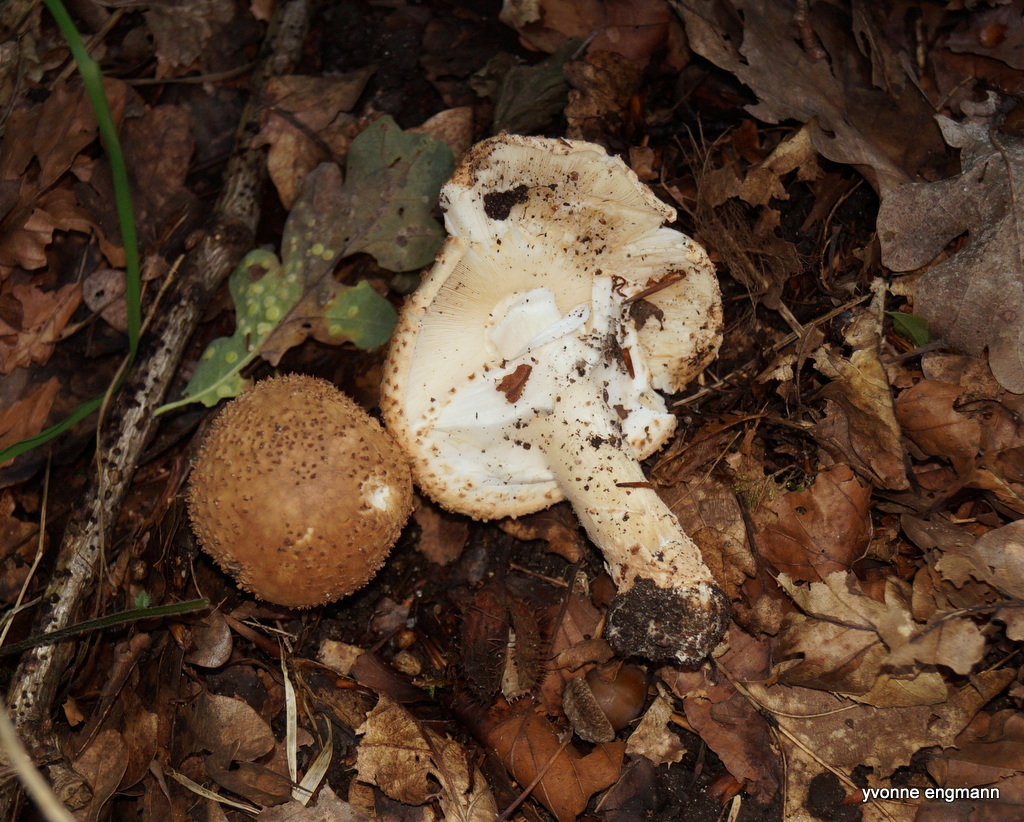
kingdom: Fungi
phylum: Basidiomycota
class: Agaricomycetes
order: Agaricales
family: Agaricaceae
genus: Echinoderma
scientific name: Echinoderma asperum
